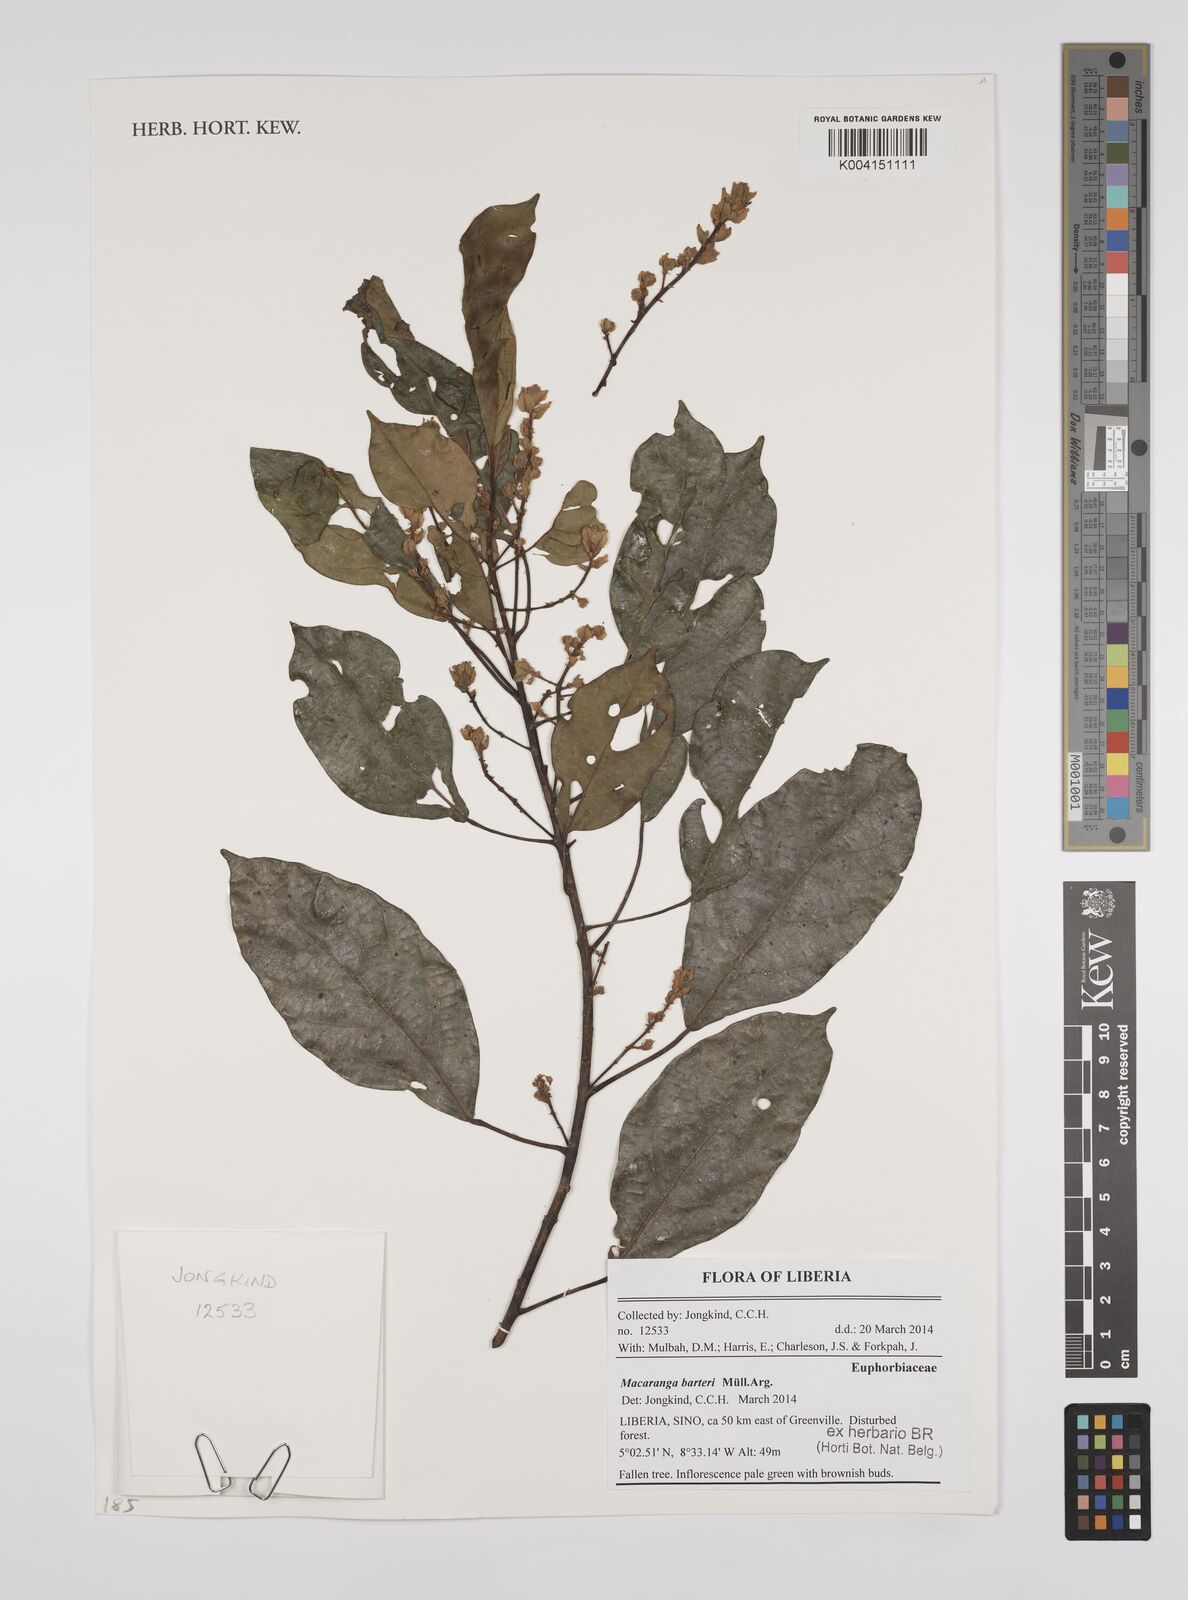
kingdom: Plantae
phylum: Tracheophyta
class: Magnoliopsida
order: Malpighiales
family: Euphorbiaceae
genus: Macaranga
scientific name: Macaranga barteri
